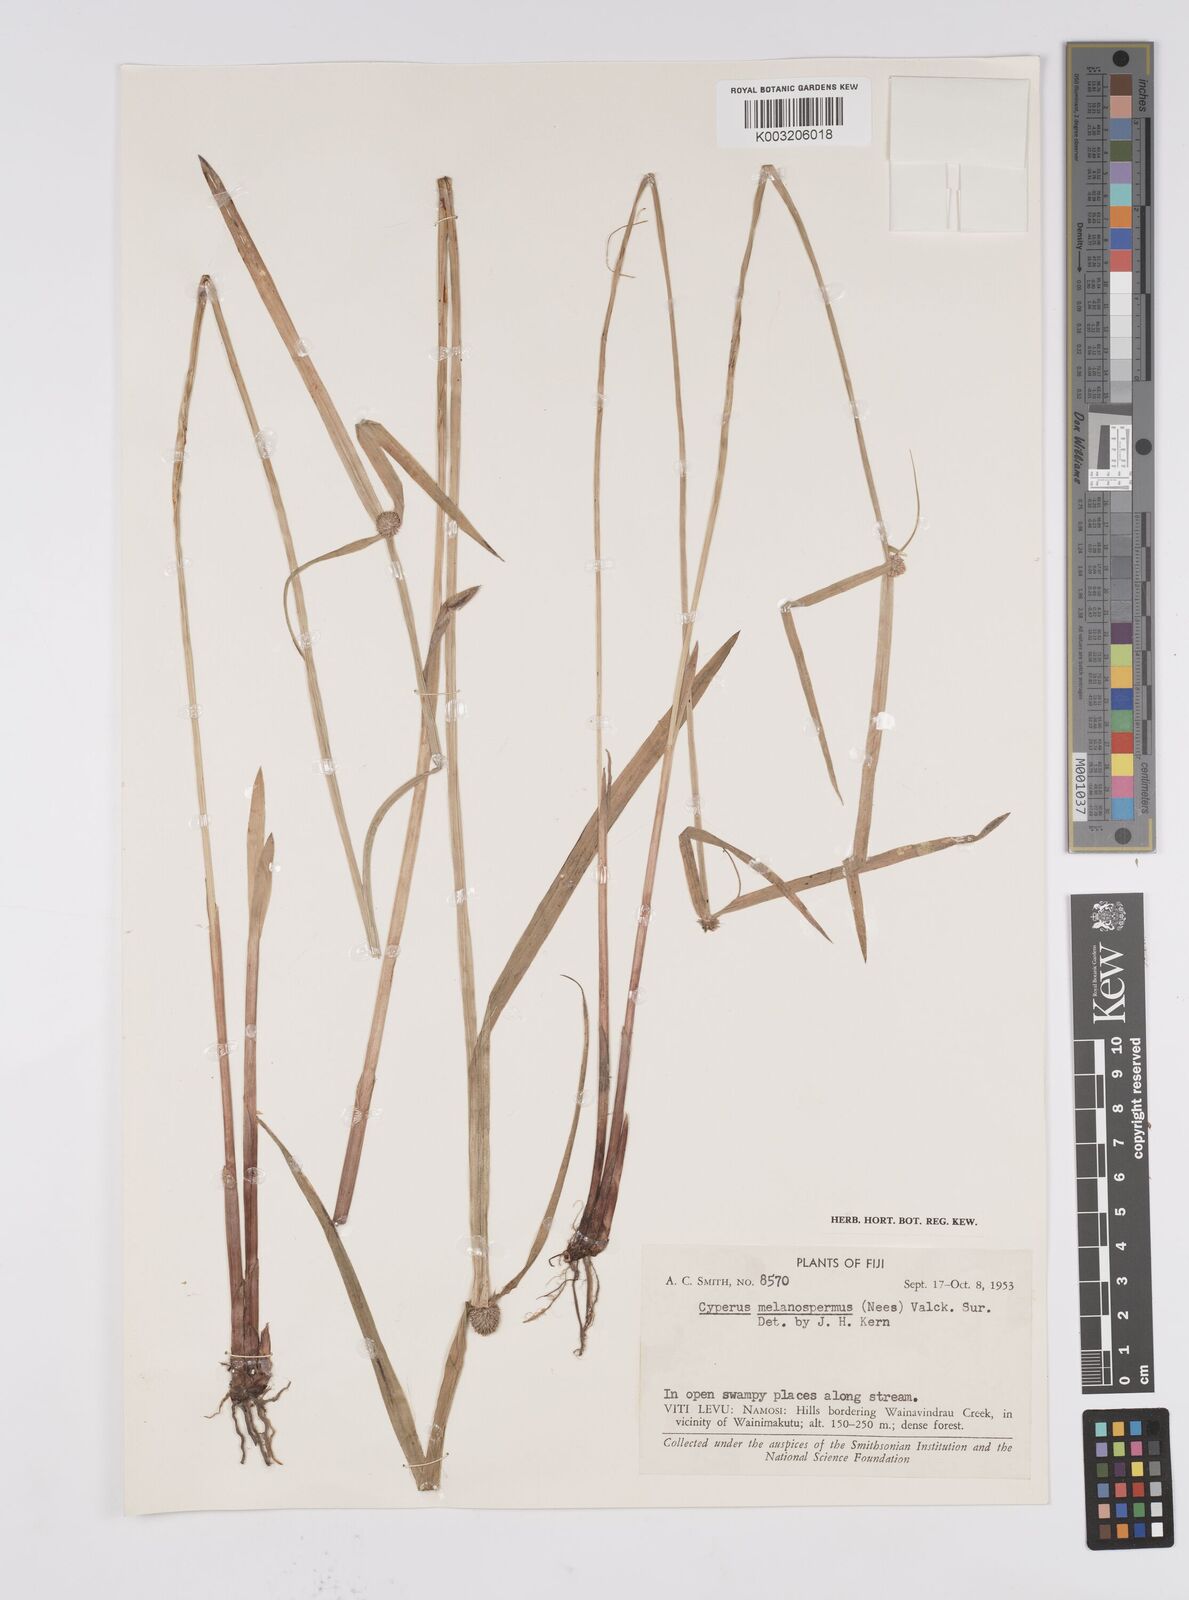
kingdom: Plantae
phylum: Tracheophyta
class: Liliopsida
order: Poales
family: Cyperaceae
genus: Cyperus
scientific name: Cyperus melanospermus
